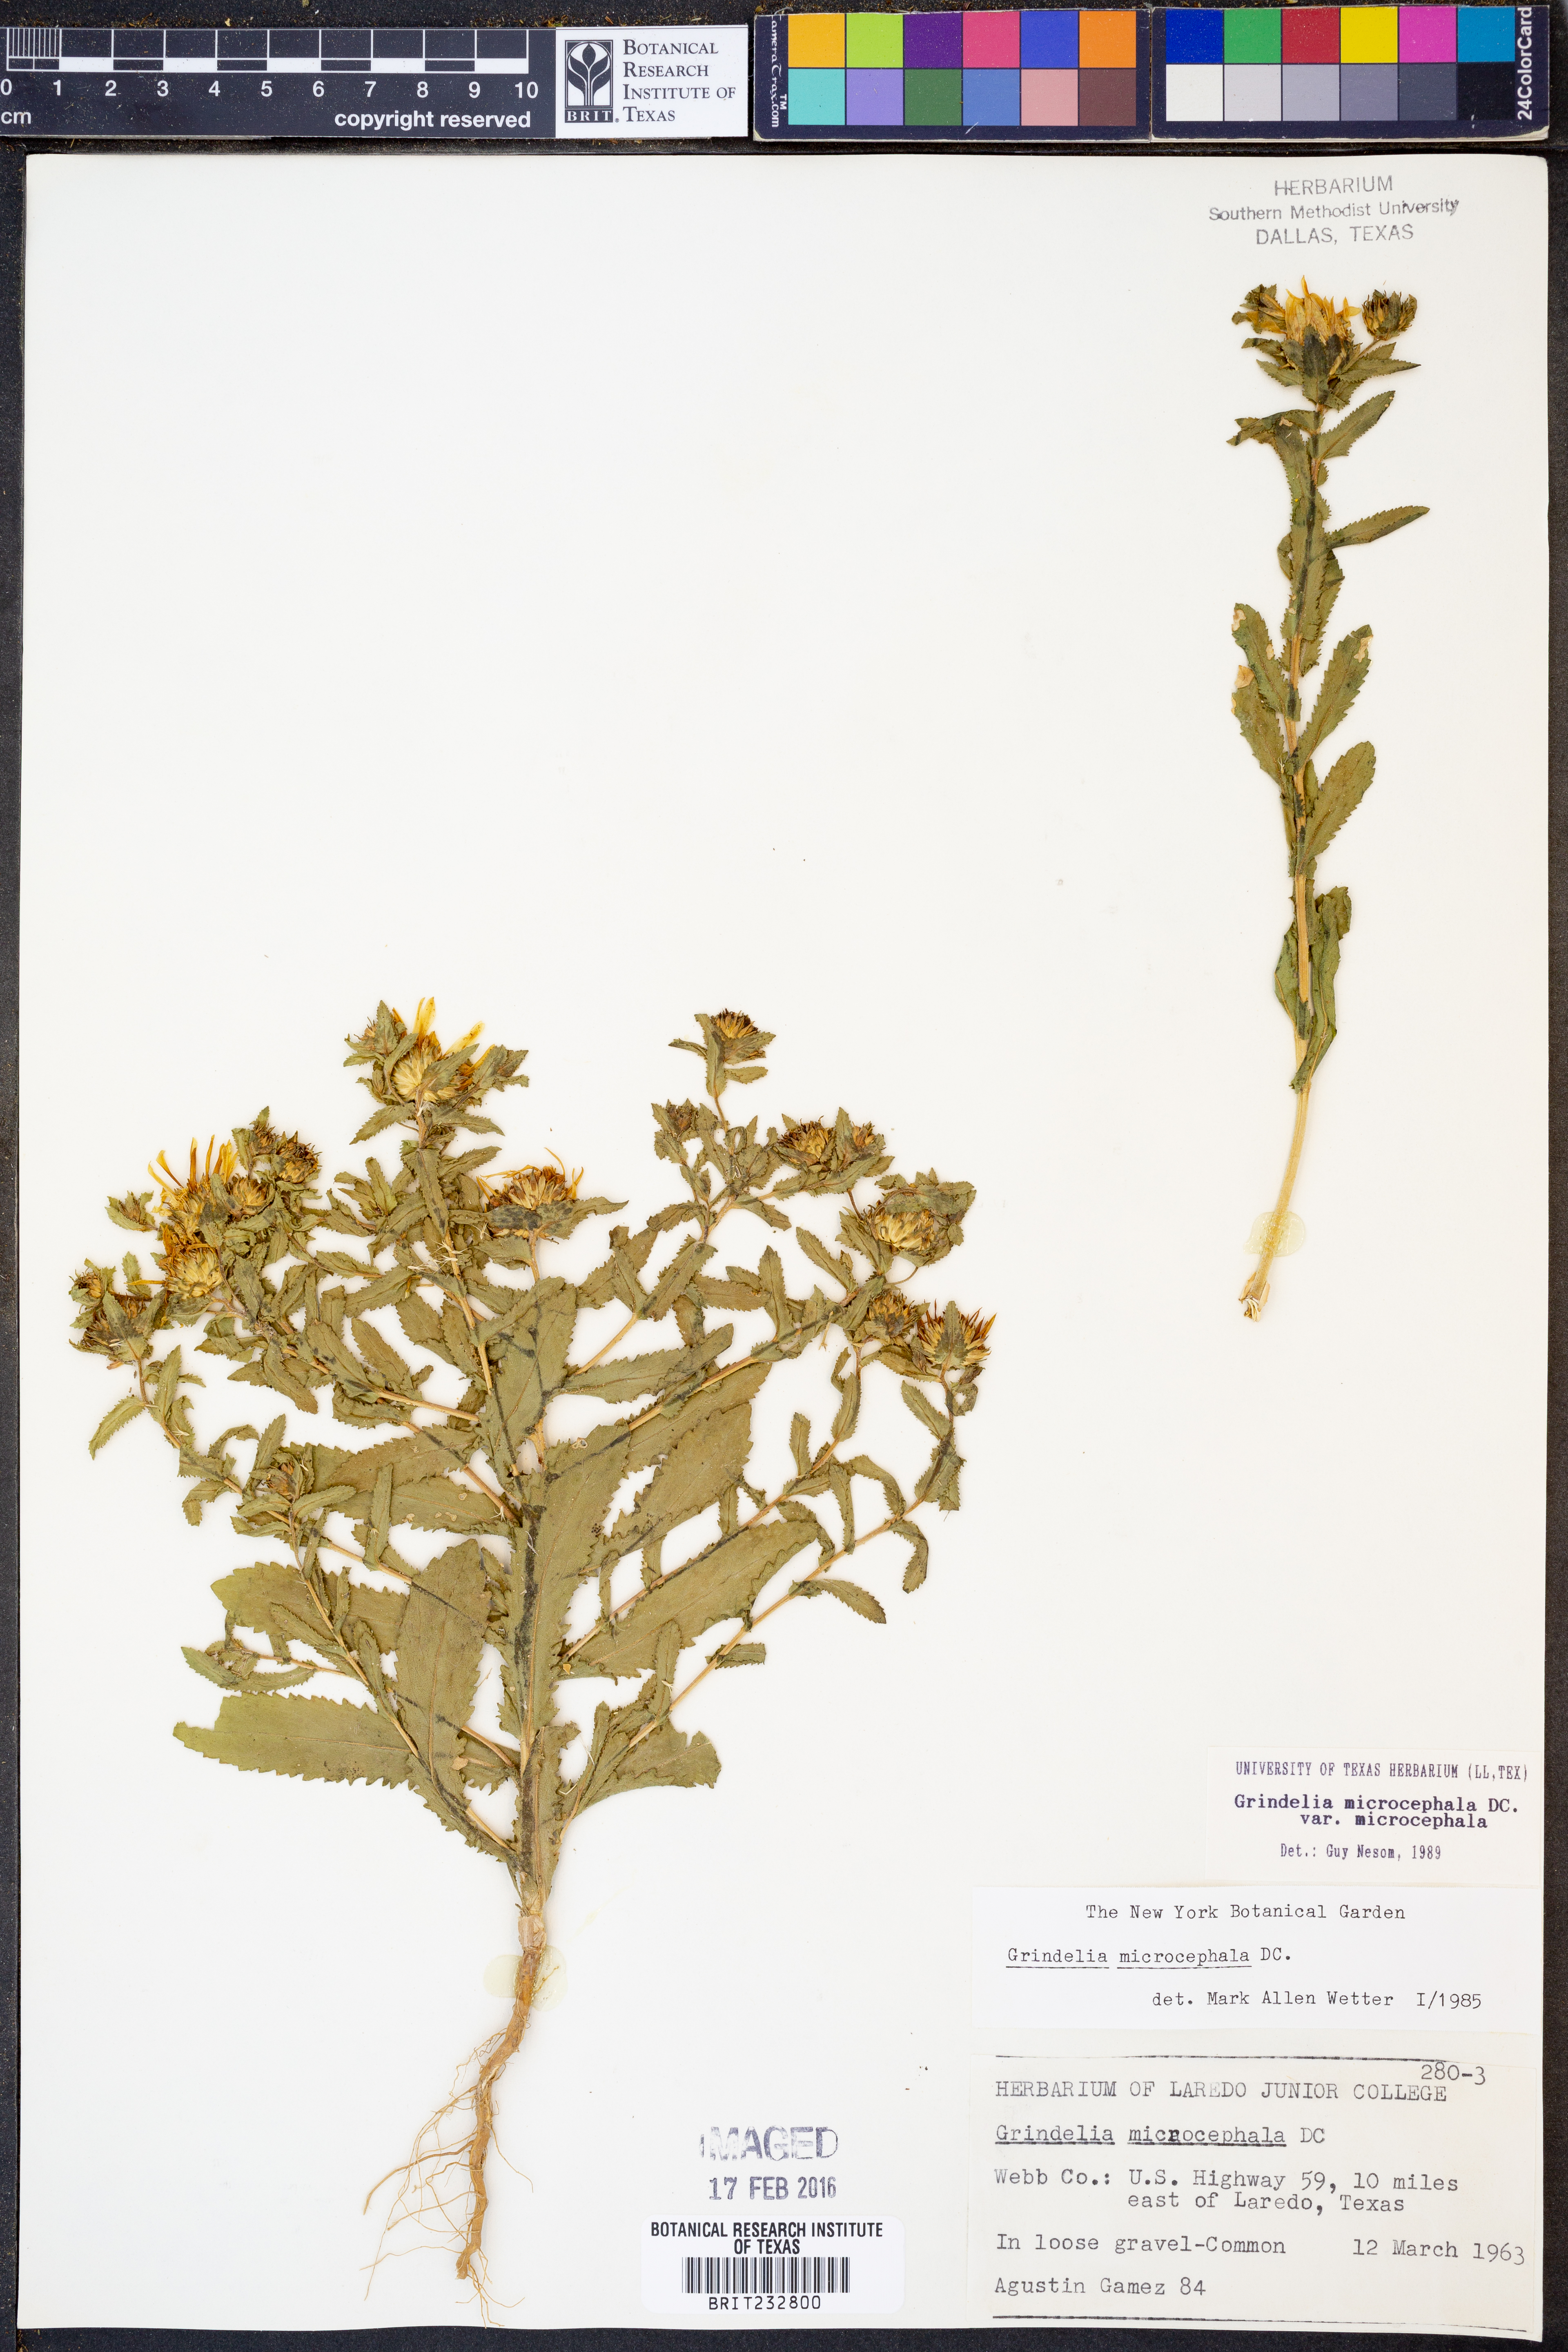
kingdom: Plantae
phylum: Tracheophyta
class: Magnoliopsida
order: Asterales
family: Asteraceae
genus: Grindelia
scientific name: Grindelia microcephala
